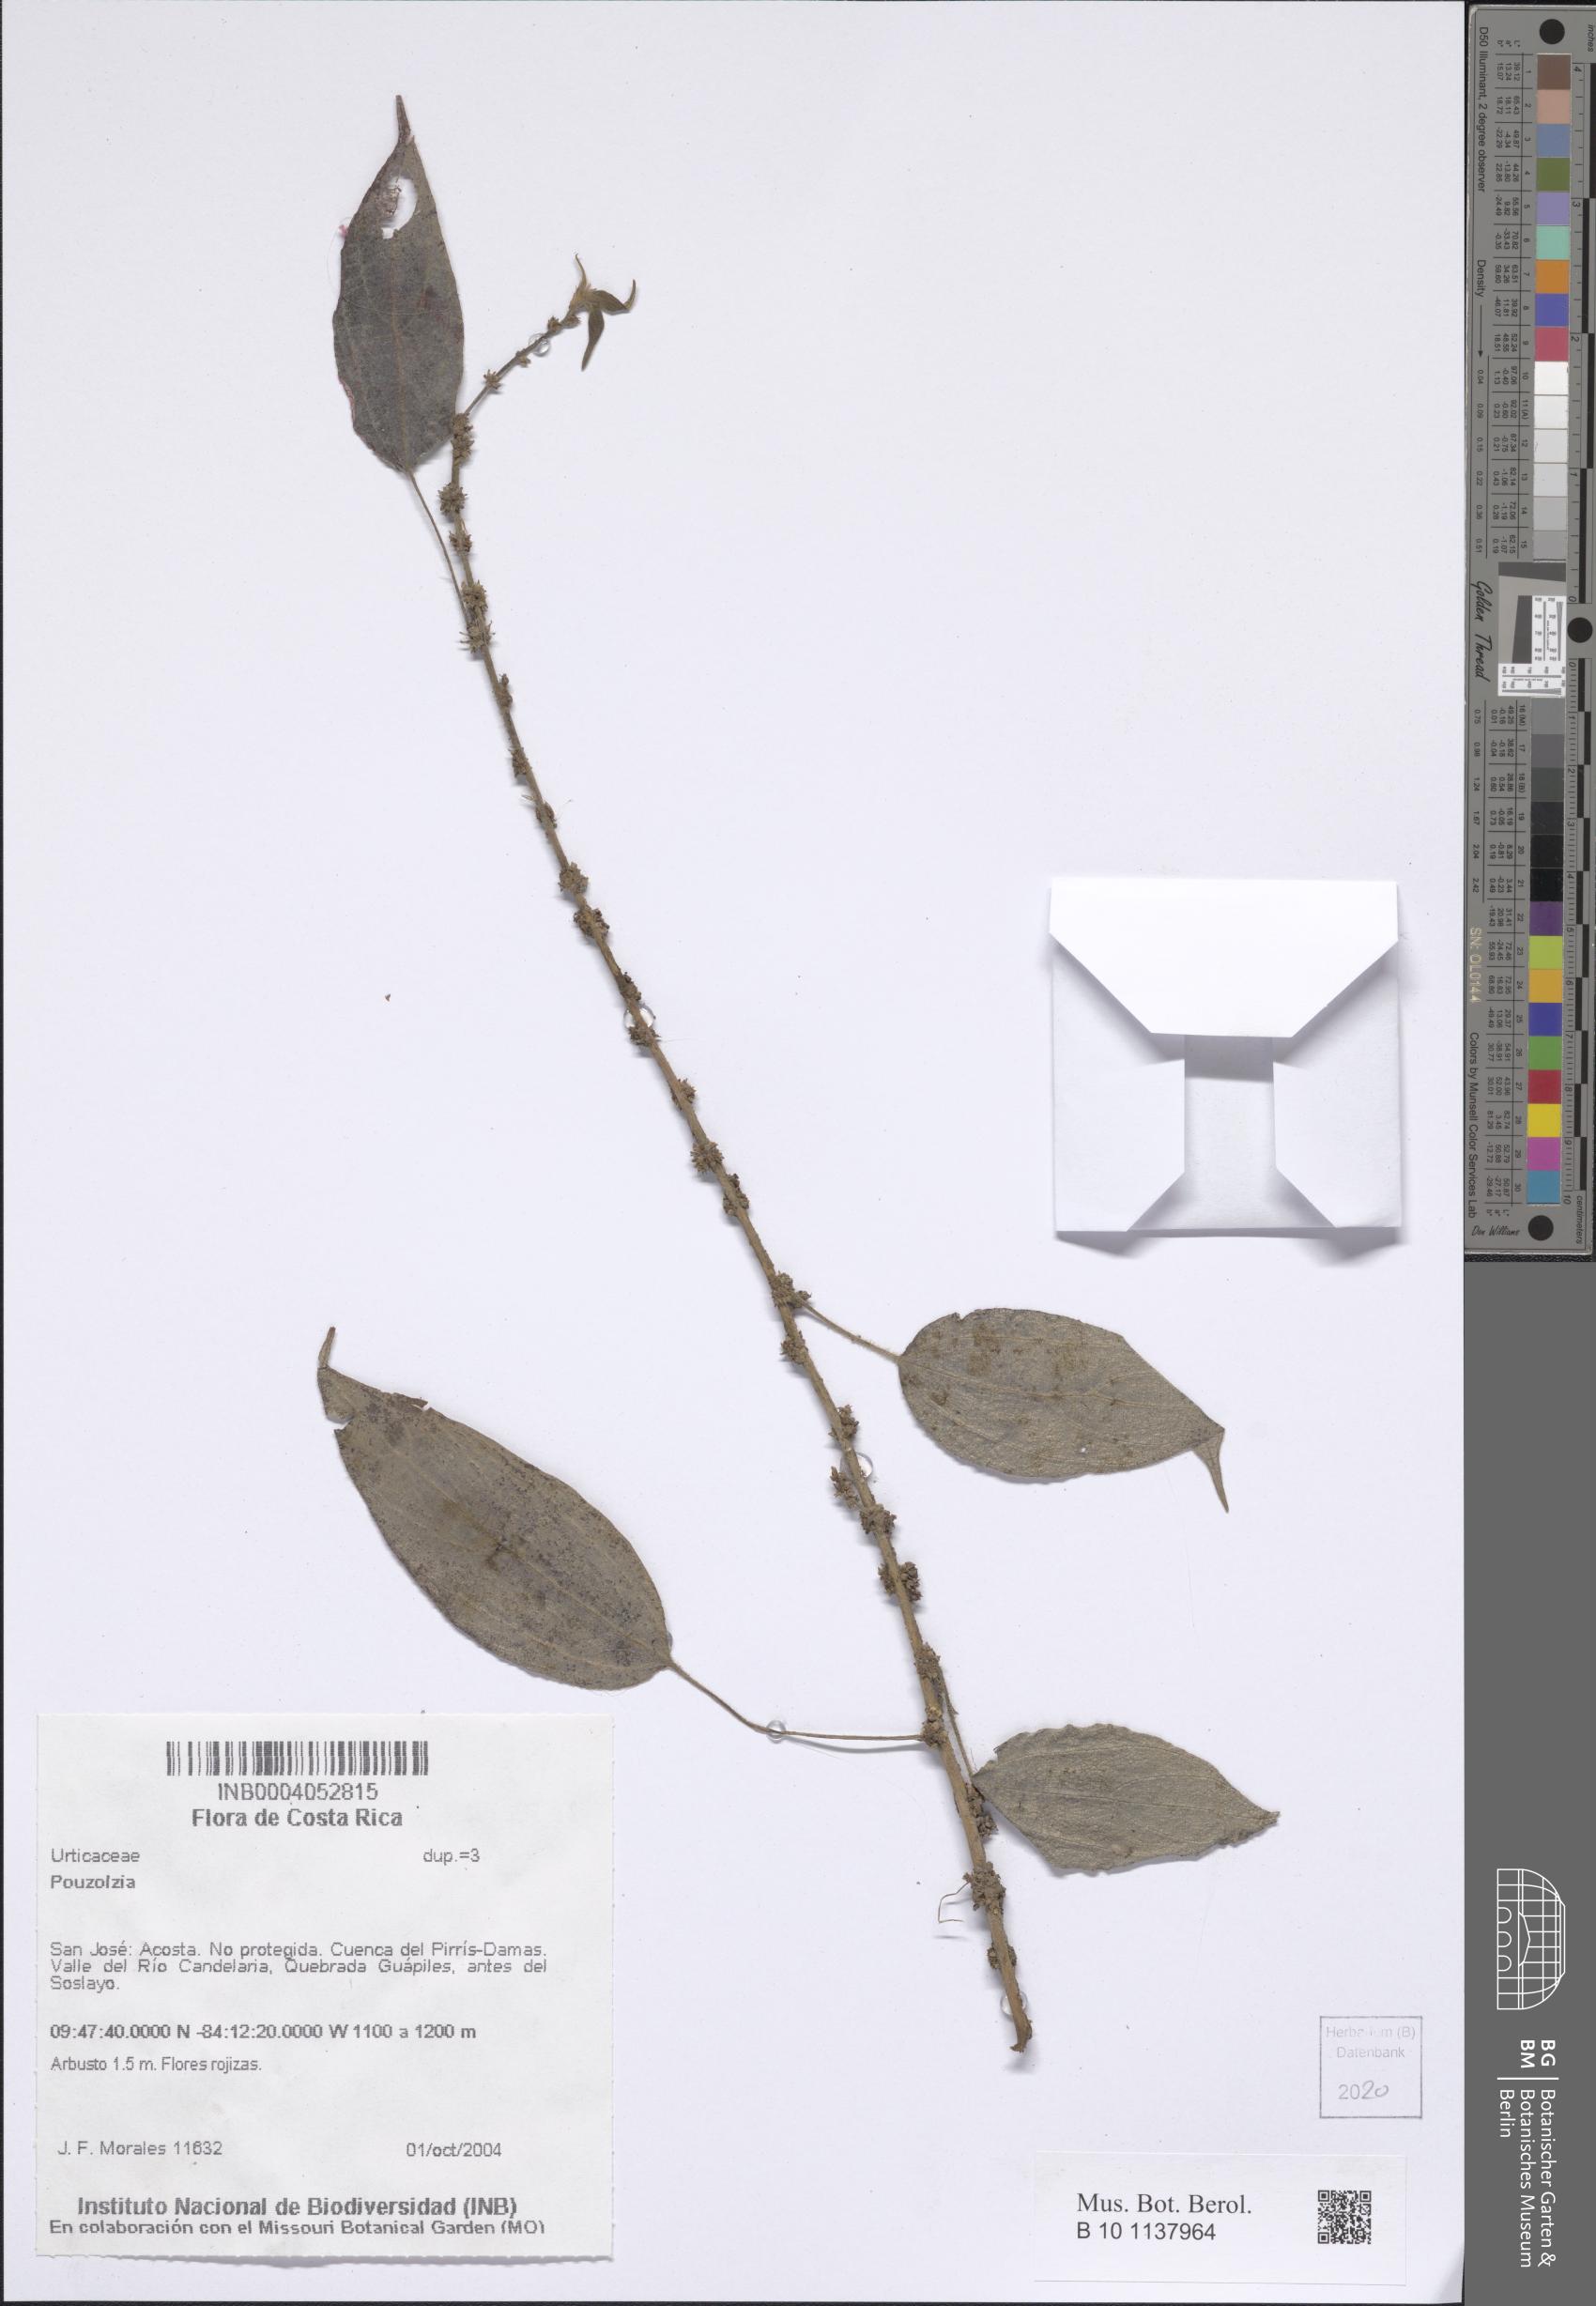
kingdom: Plantae
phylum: Tracheophyta
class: Magnoliopsida
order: Rosales
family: Urticaceae
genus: Pouzolzia
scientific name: Pouzolzia
